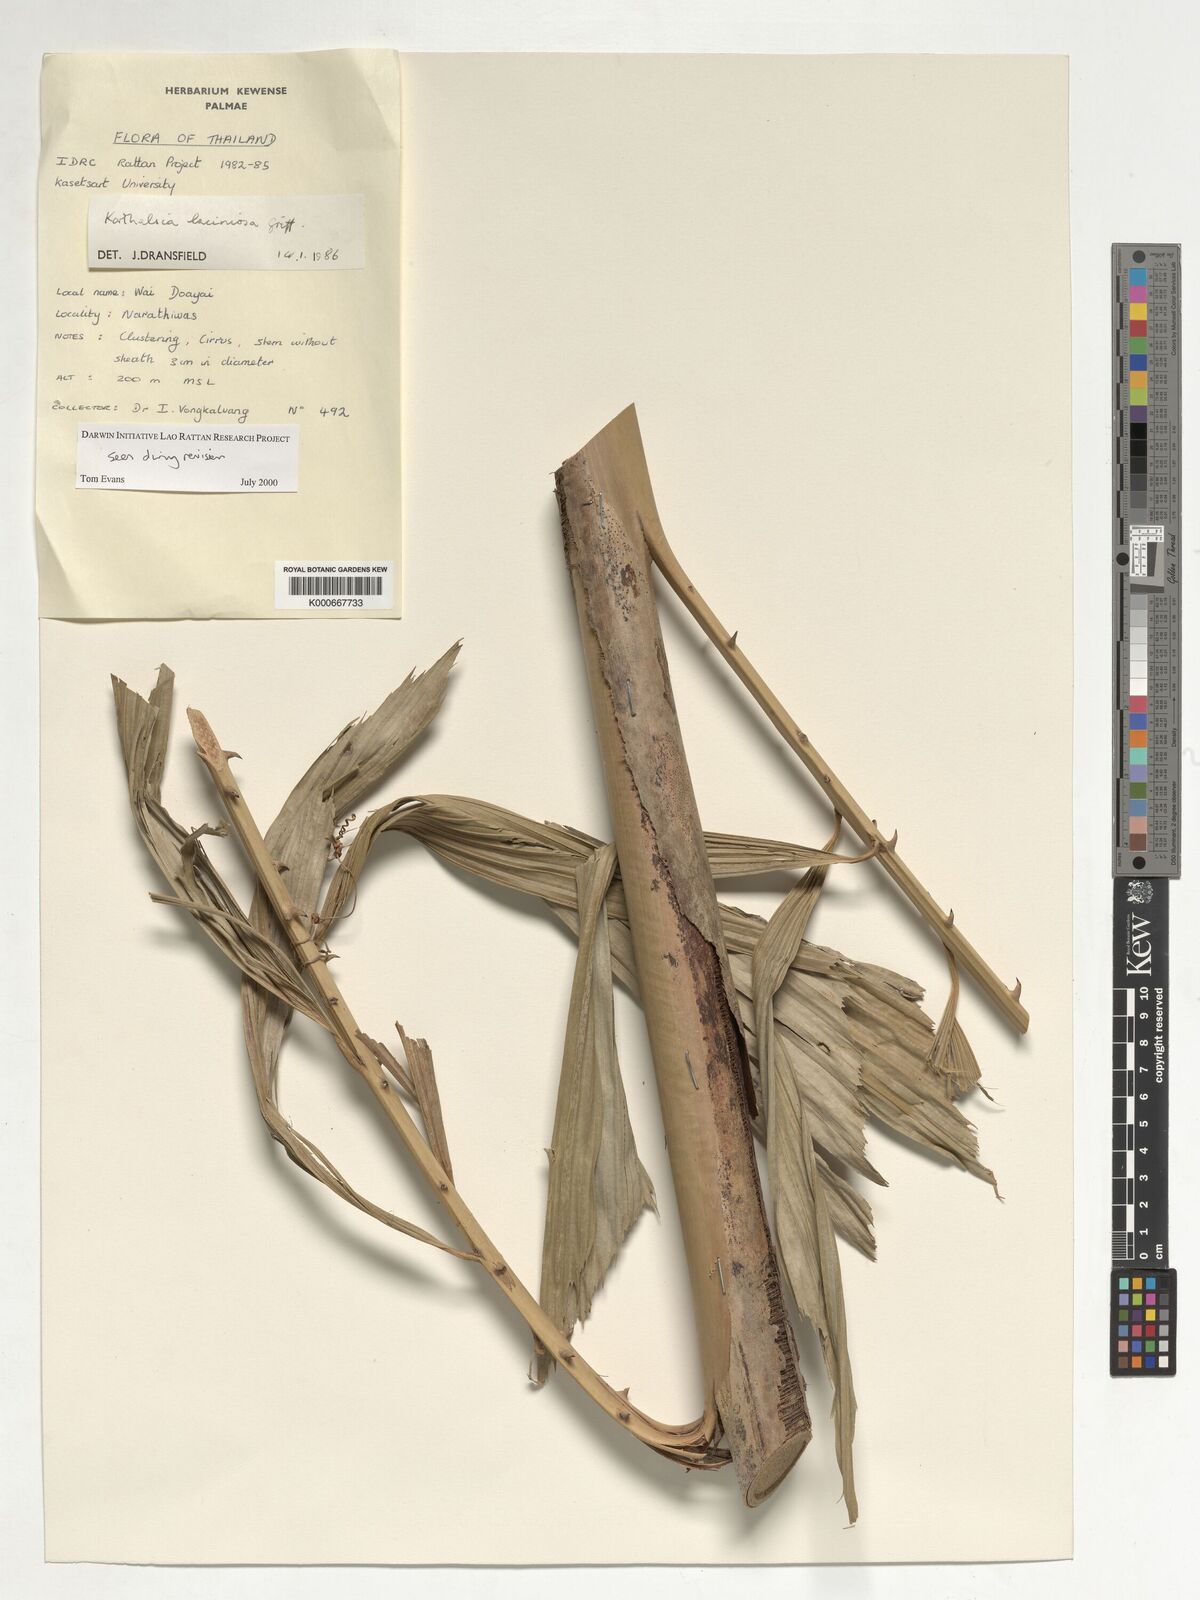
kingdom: Plantae
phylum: Tracheophyta
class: Liliopsida
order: Arecales
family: Arecaceae
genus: Korthalsia
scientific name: Korthalsia laciniosa
